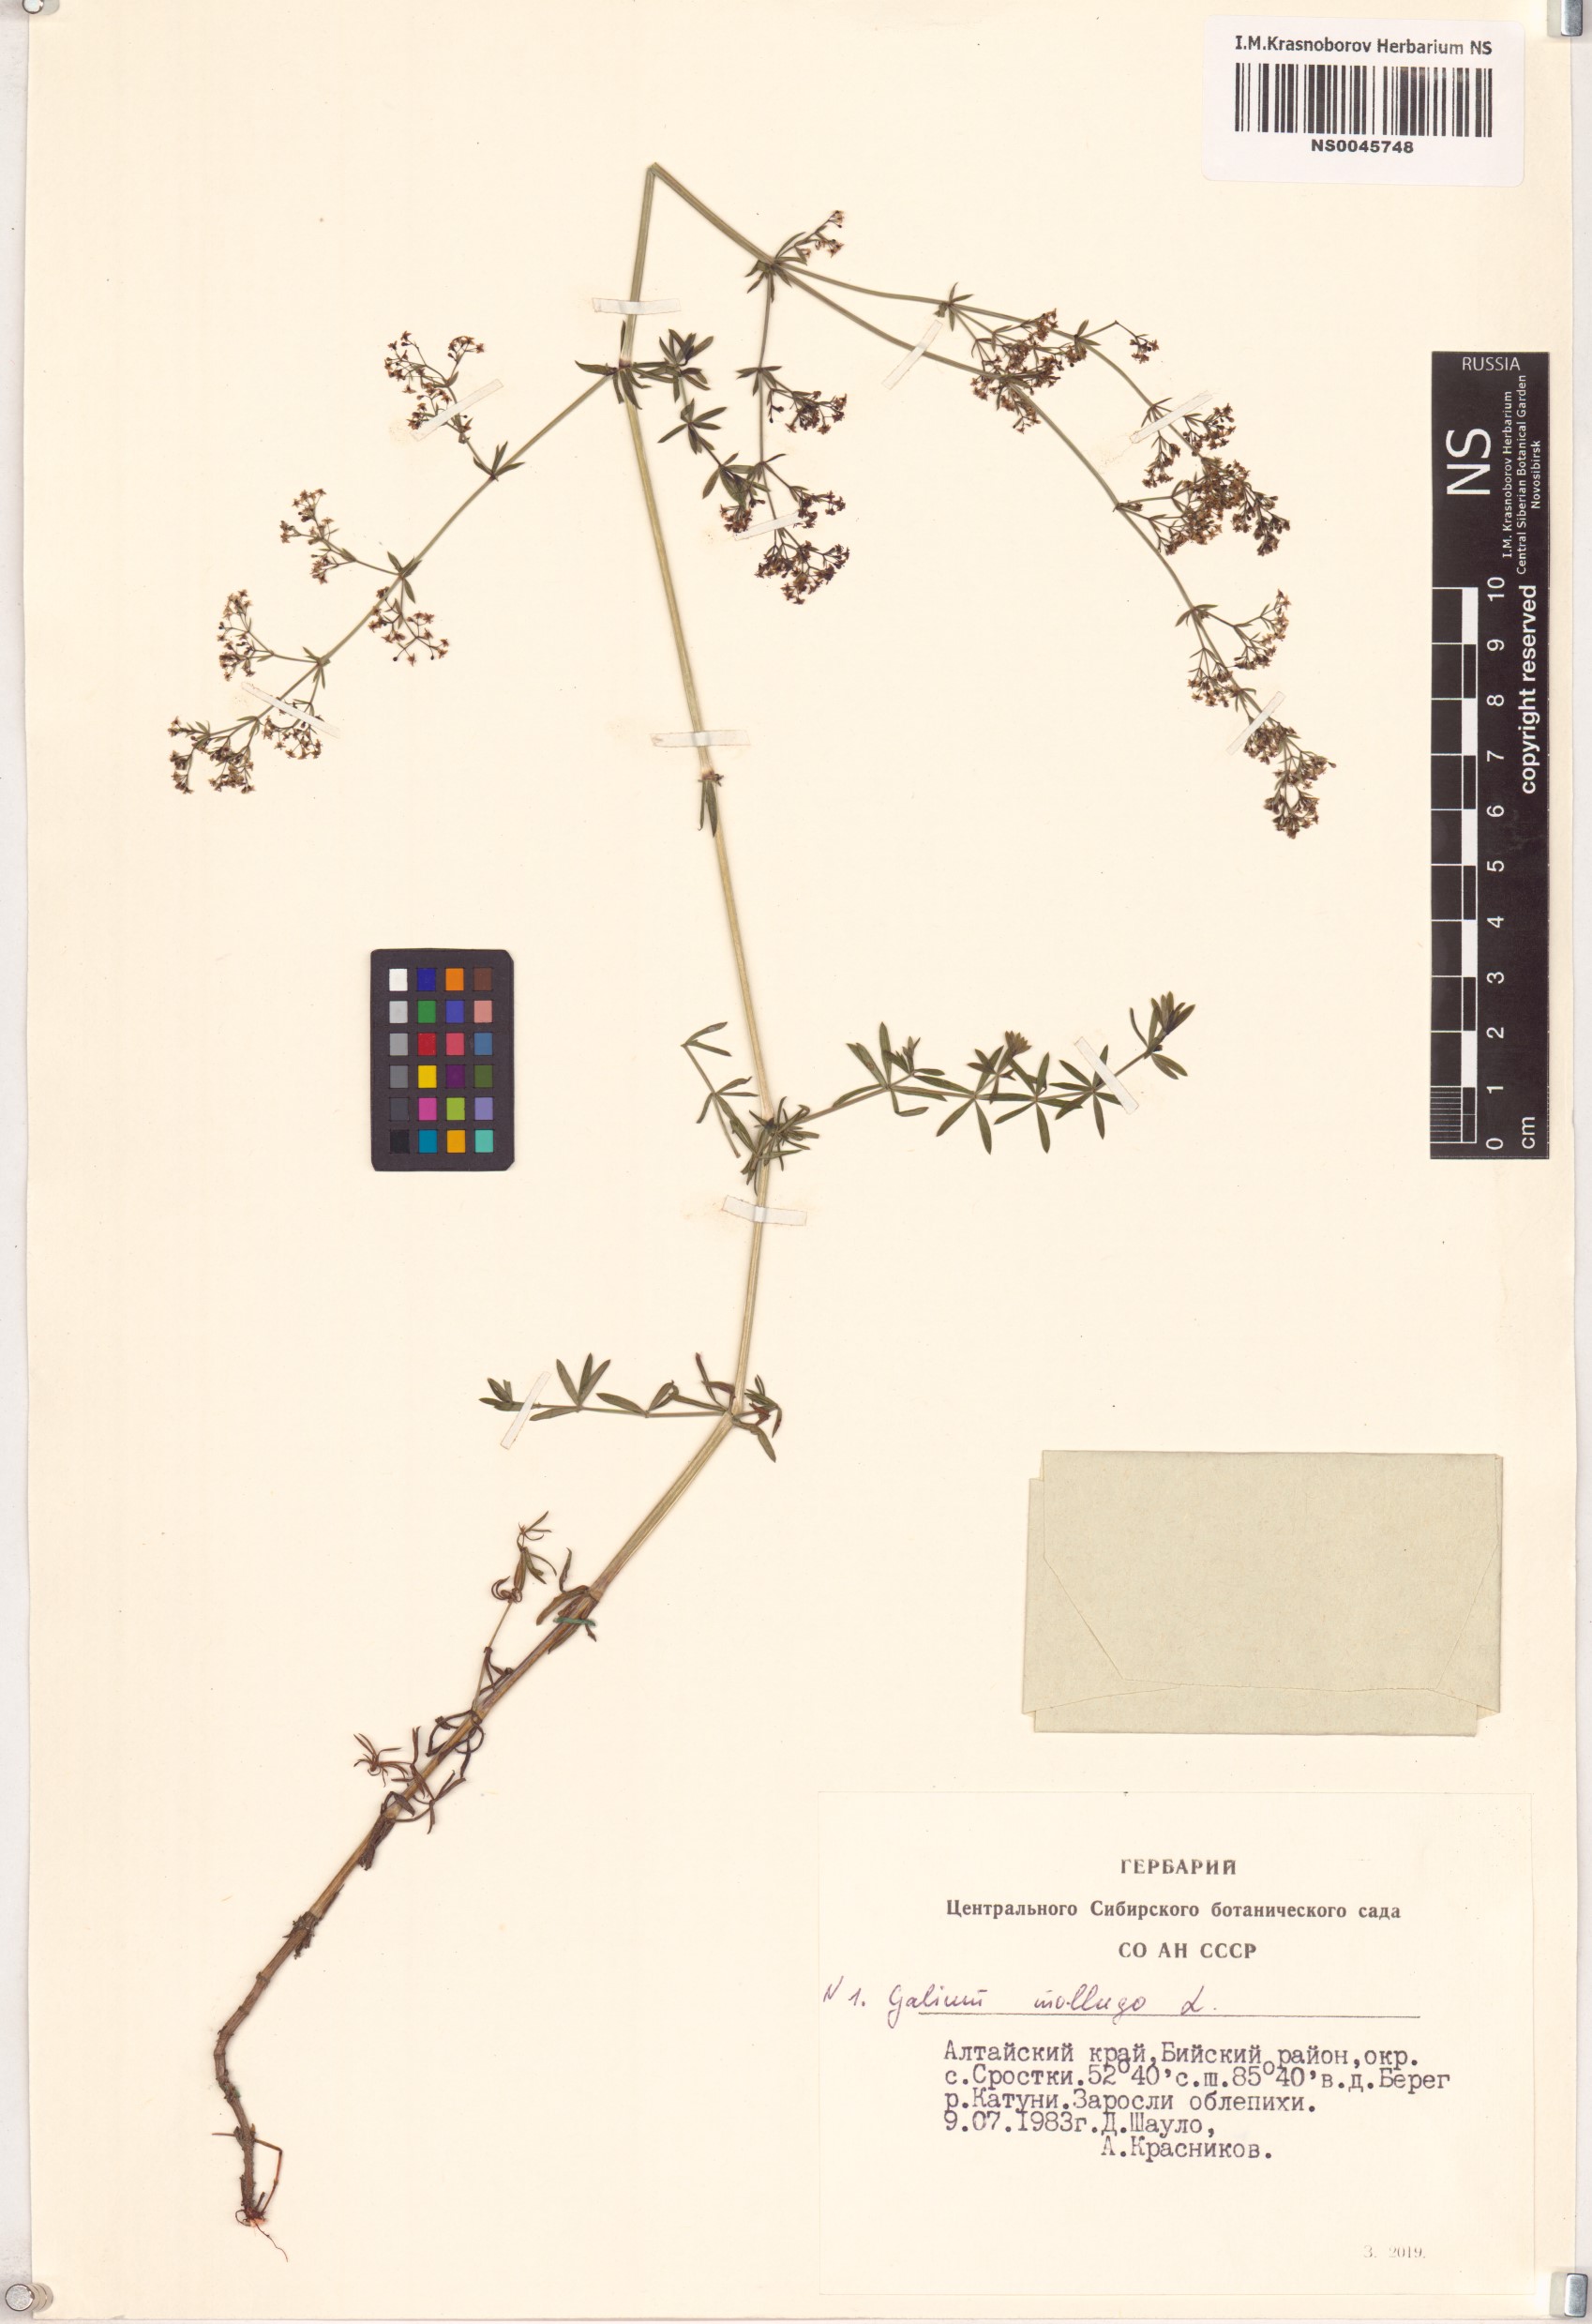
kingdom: Plantae
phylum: Tracheophyta
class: Magnoliopsida
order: Gentianales
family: Rubiaceae
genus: Galium
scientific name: Galium mollugo
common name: Hedge bedstraw
